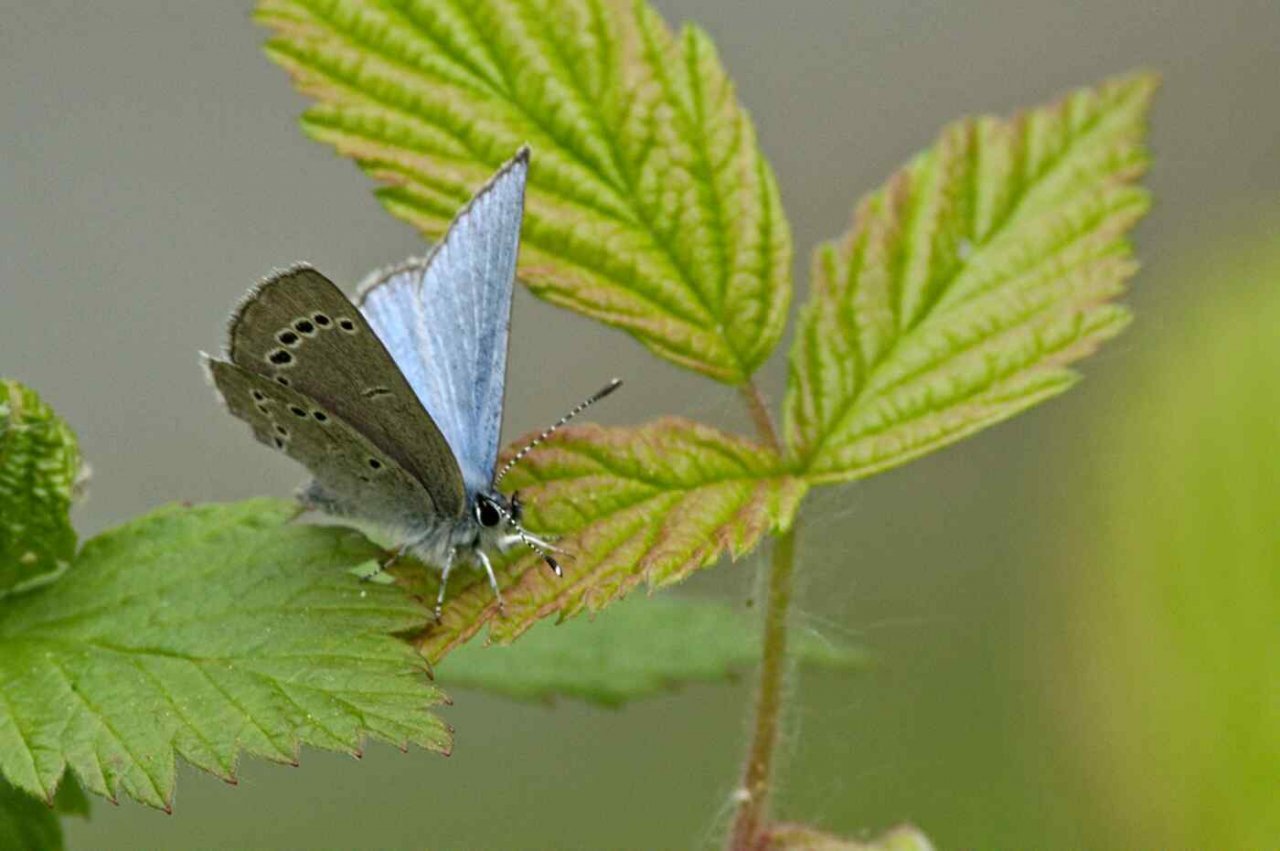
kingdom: Animalia
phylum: Arthropoda
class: Insecta
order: Lepidoptera
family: Lycaenidae
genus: Glaucopsyche
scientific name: Glaucopsyche lygdamus
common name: Silvery Blue
